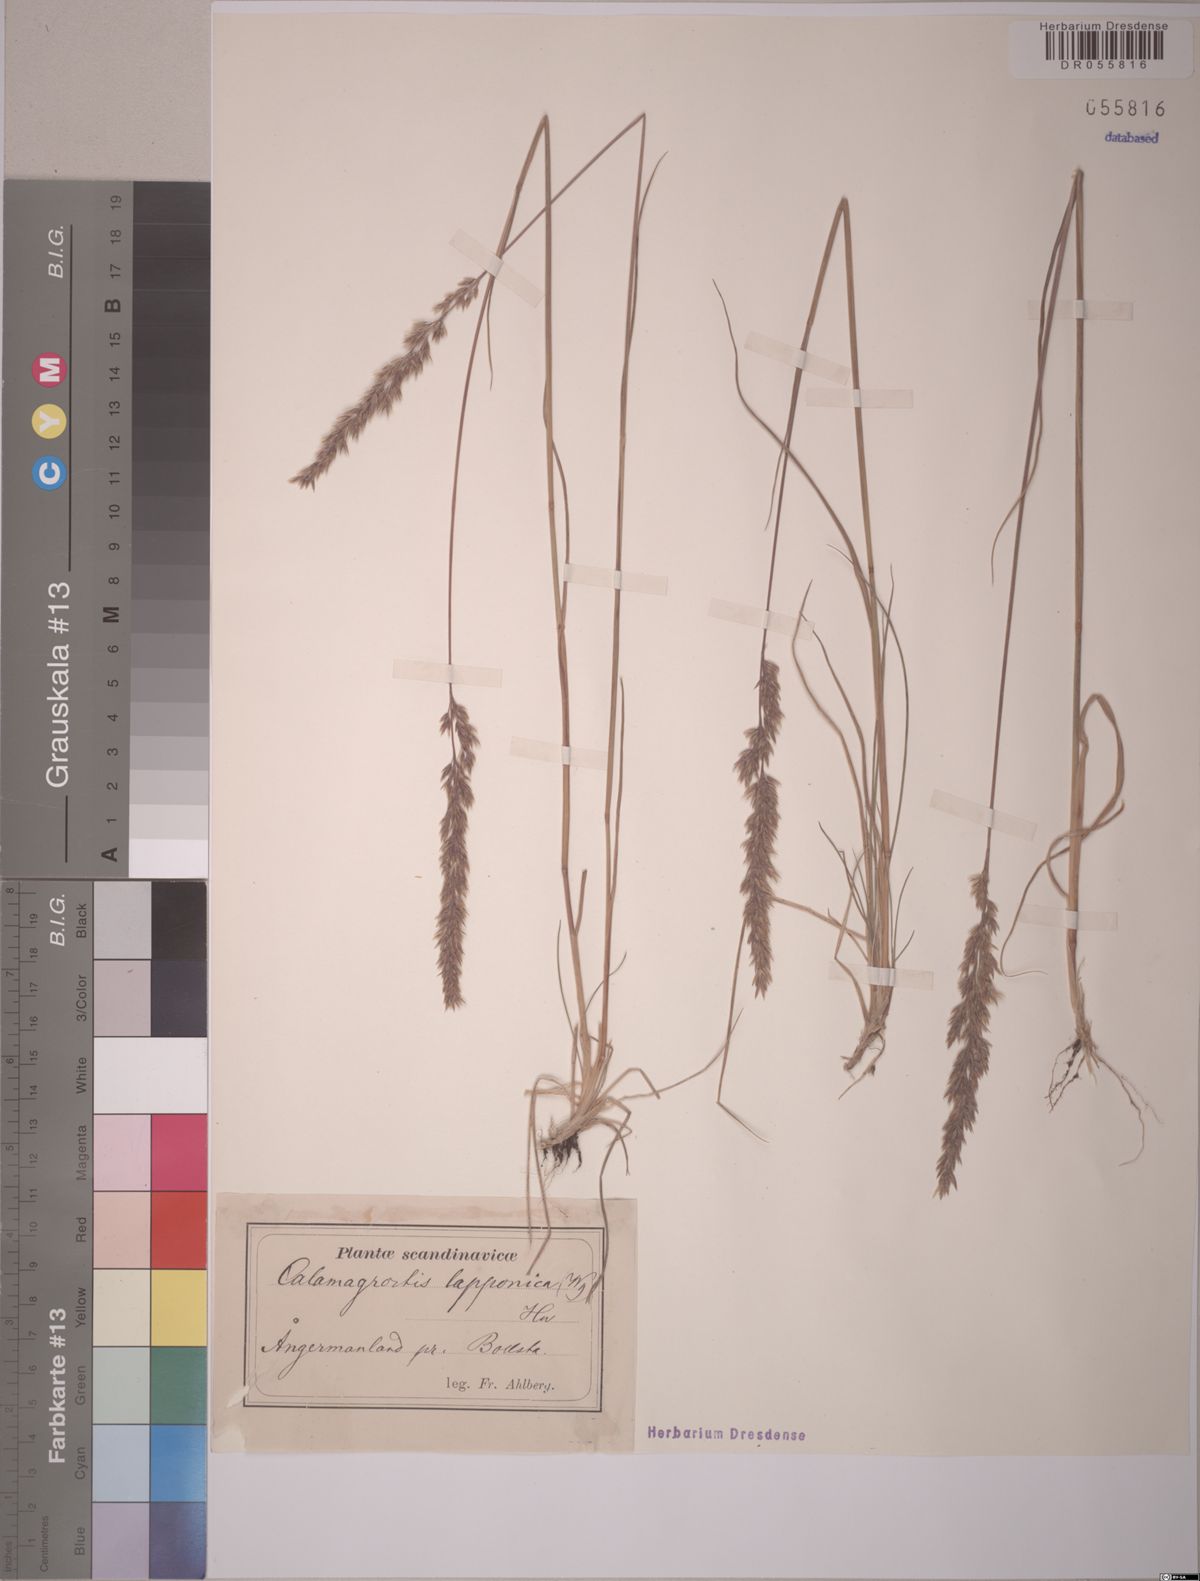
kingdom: Plantae
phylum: Tracheophyta
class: Liliopsida
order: Poales
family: Poaceae
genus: Calamagrostis
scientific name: Calamagrostis lapponica
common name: Lapland reedgrass
